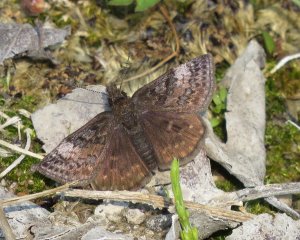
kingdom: Animalia
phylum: Arthropoda
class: Insecta
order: Lepidoptera
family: Hesperiidae
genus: Erynnis
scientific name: Erynnis icelus
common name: Dreamy Duskywing
